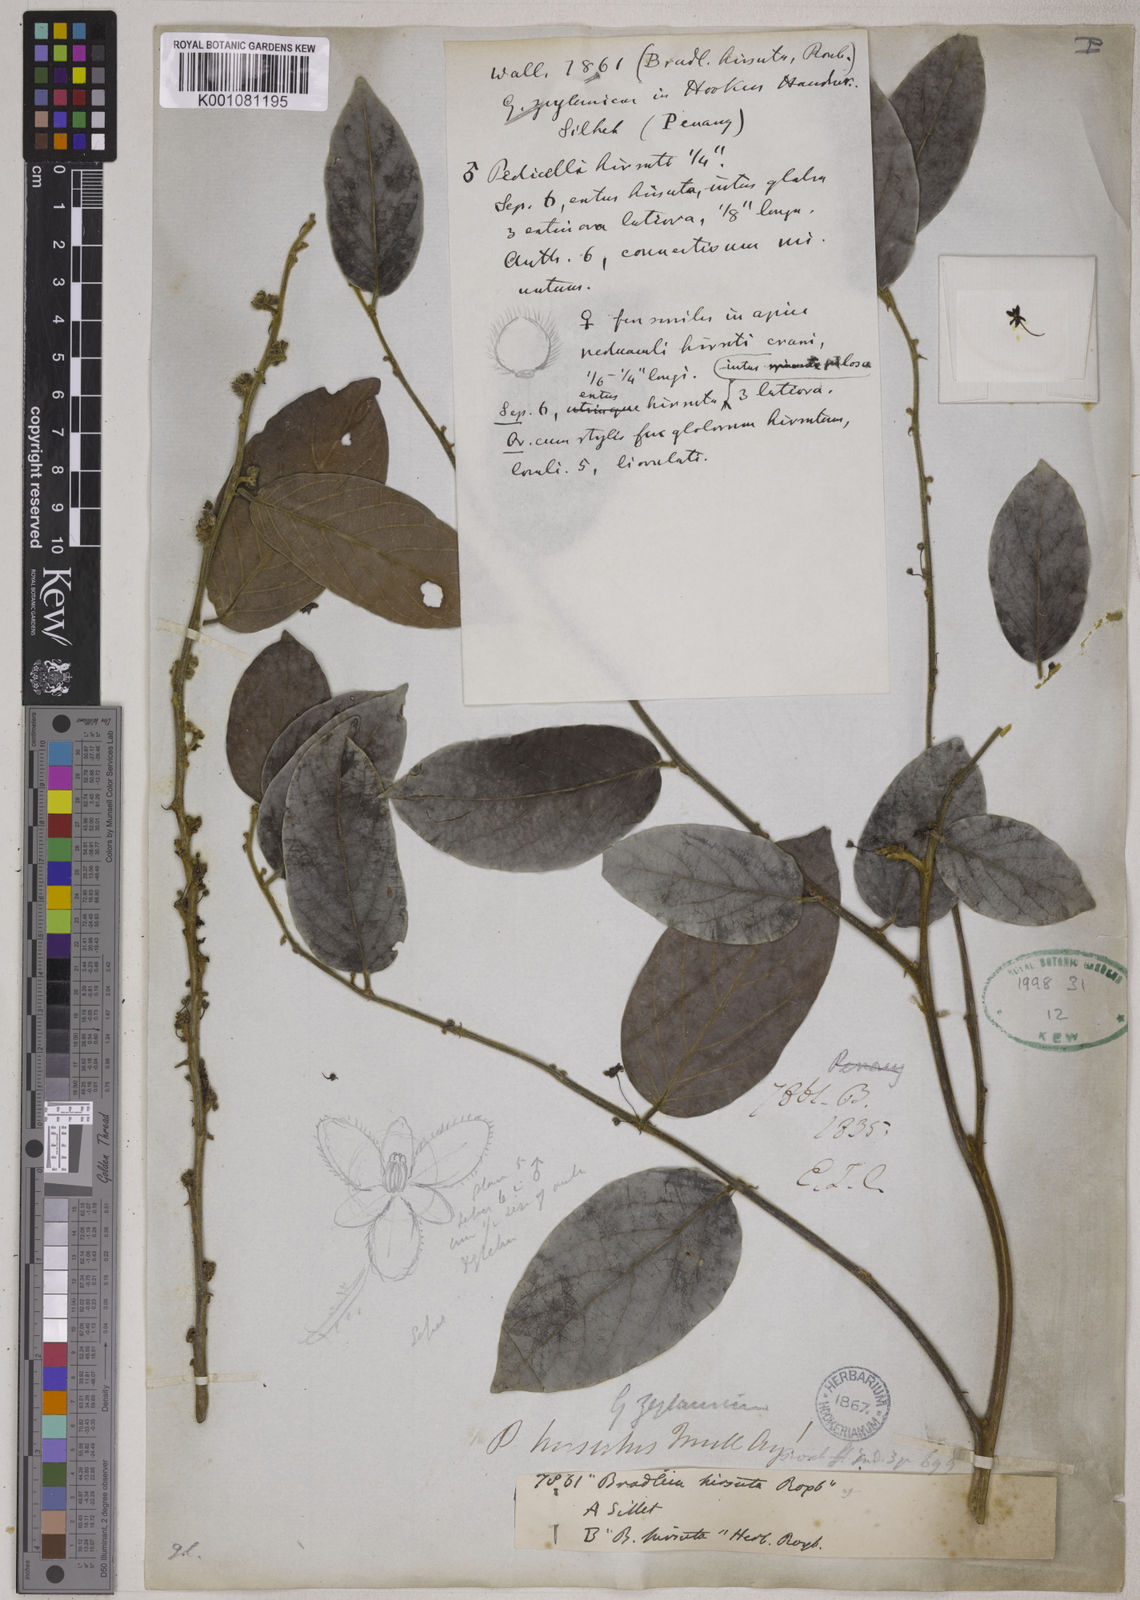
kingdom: Plantae
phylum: Tracheophyta
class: Magnoliopsida
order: Malpighiales
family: Phyllanthaceae
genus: Glochidion
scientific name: Glochidion zeylanicum
